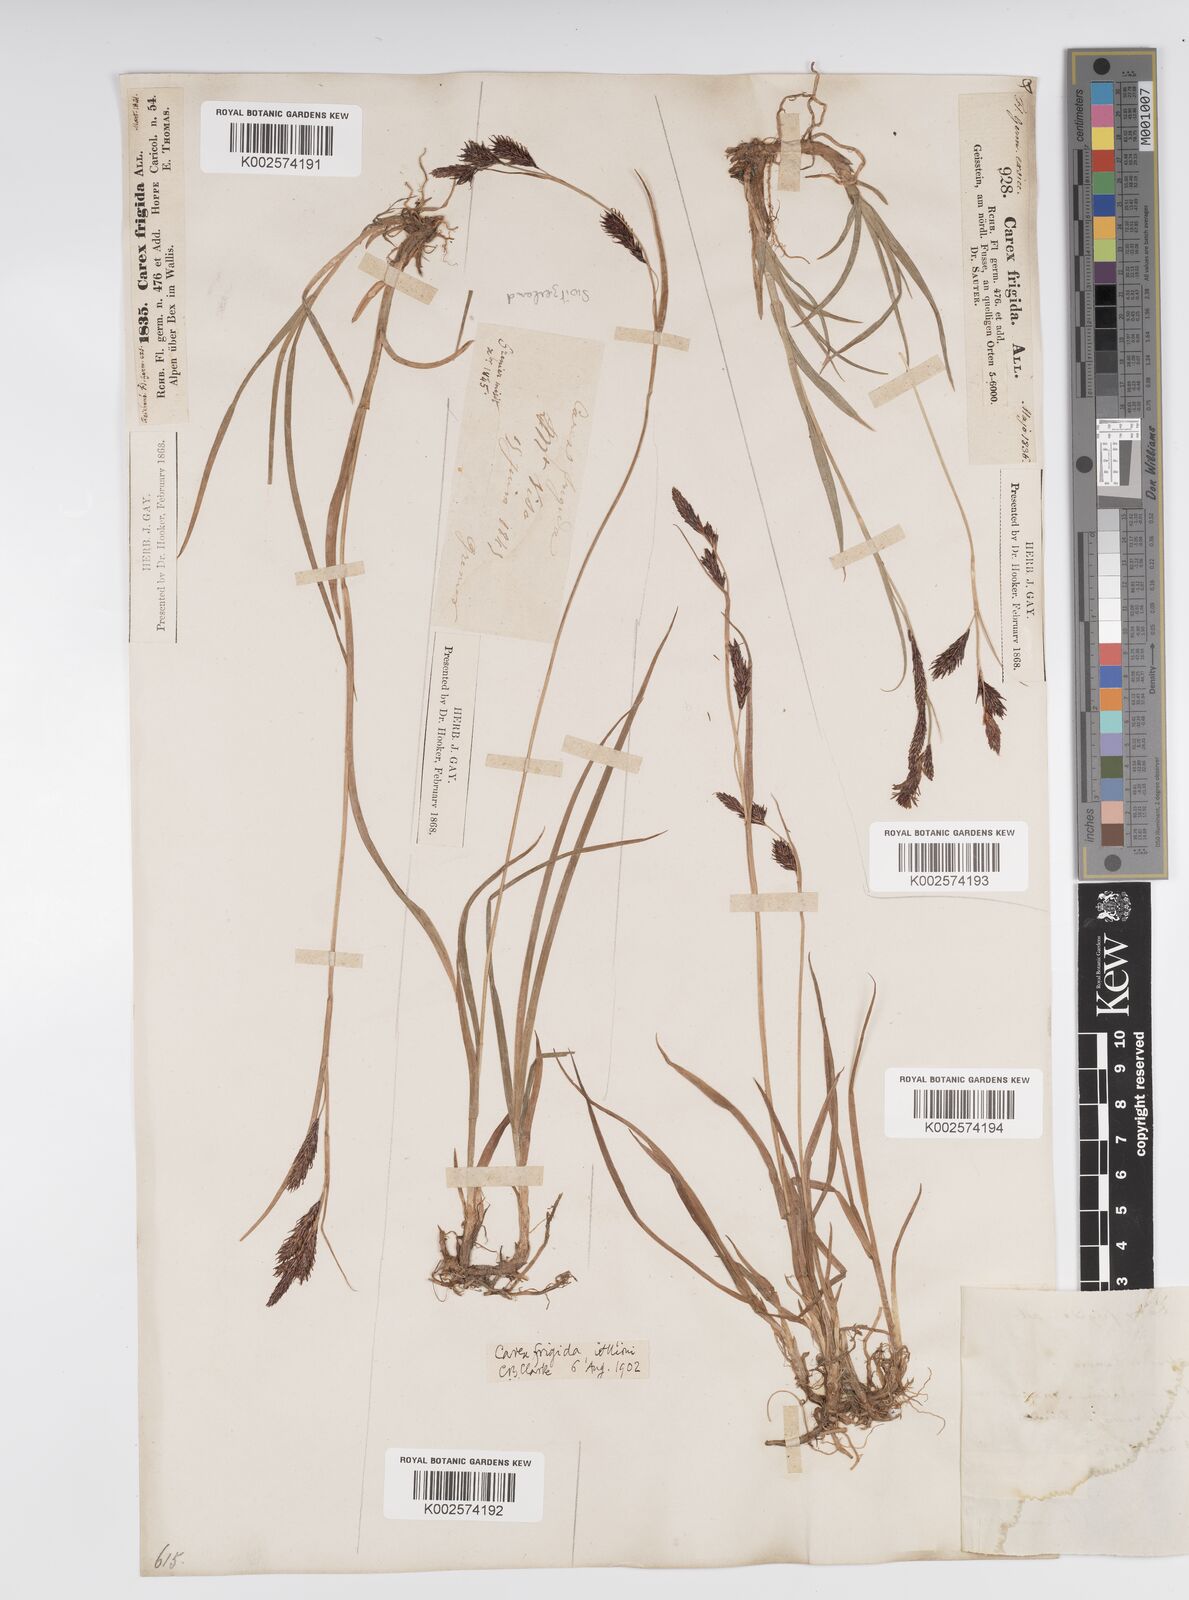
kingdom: Plantae
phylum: Tracheophyta
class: Liliopsida
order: Poales
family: Cyperaceae
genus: Carex
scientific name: Carex frigida
